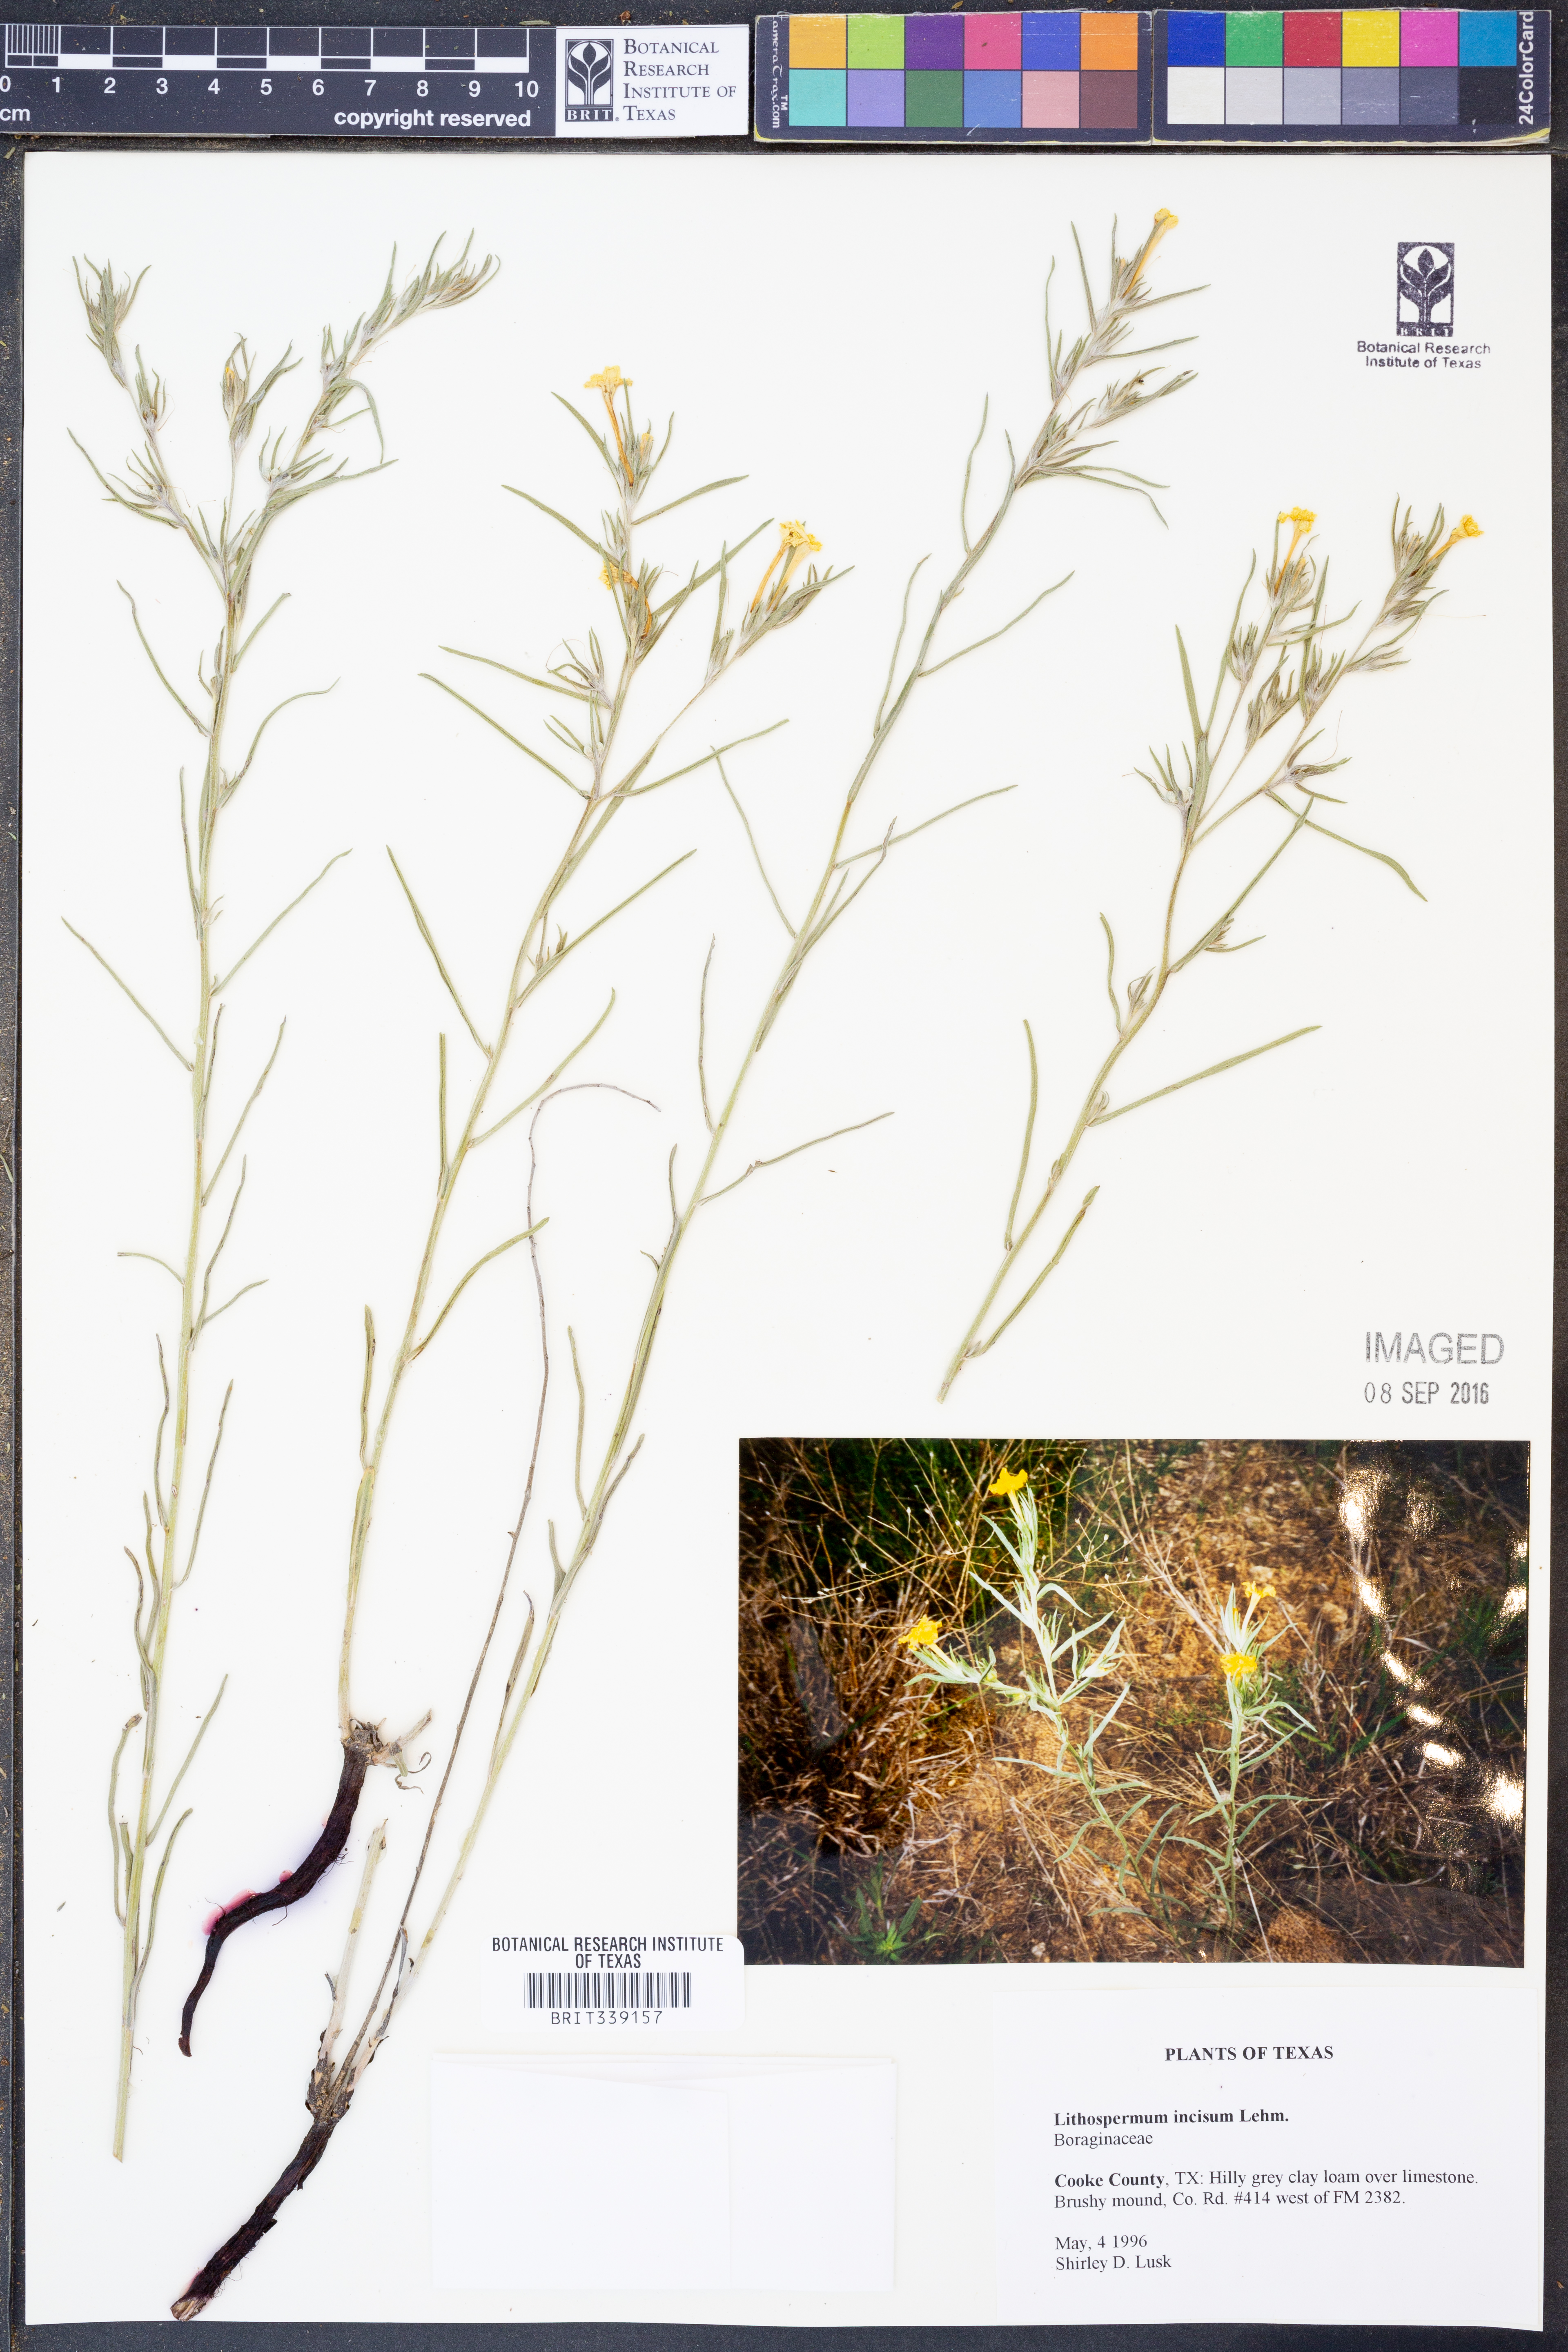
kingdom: Plantae
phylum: Tracheophyta
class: Magnoliopsida
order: Boraginales
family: Boraginaceae
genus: Lithospermum
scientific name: Lithospermum incisum
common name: Fringed gromwell
